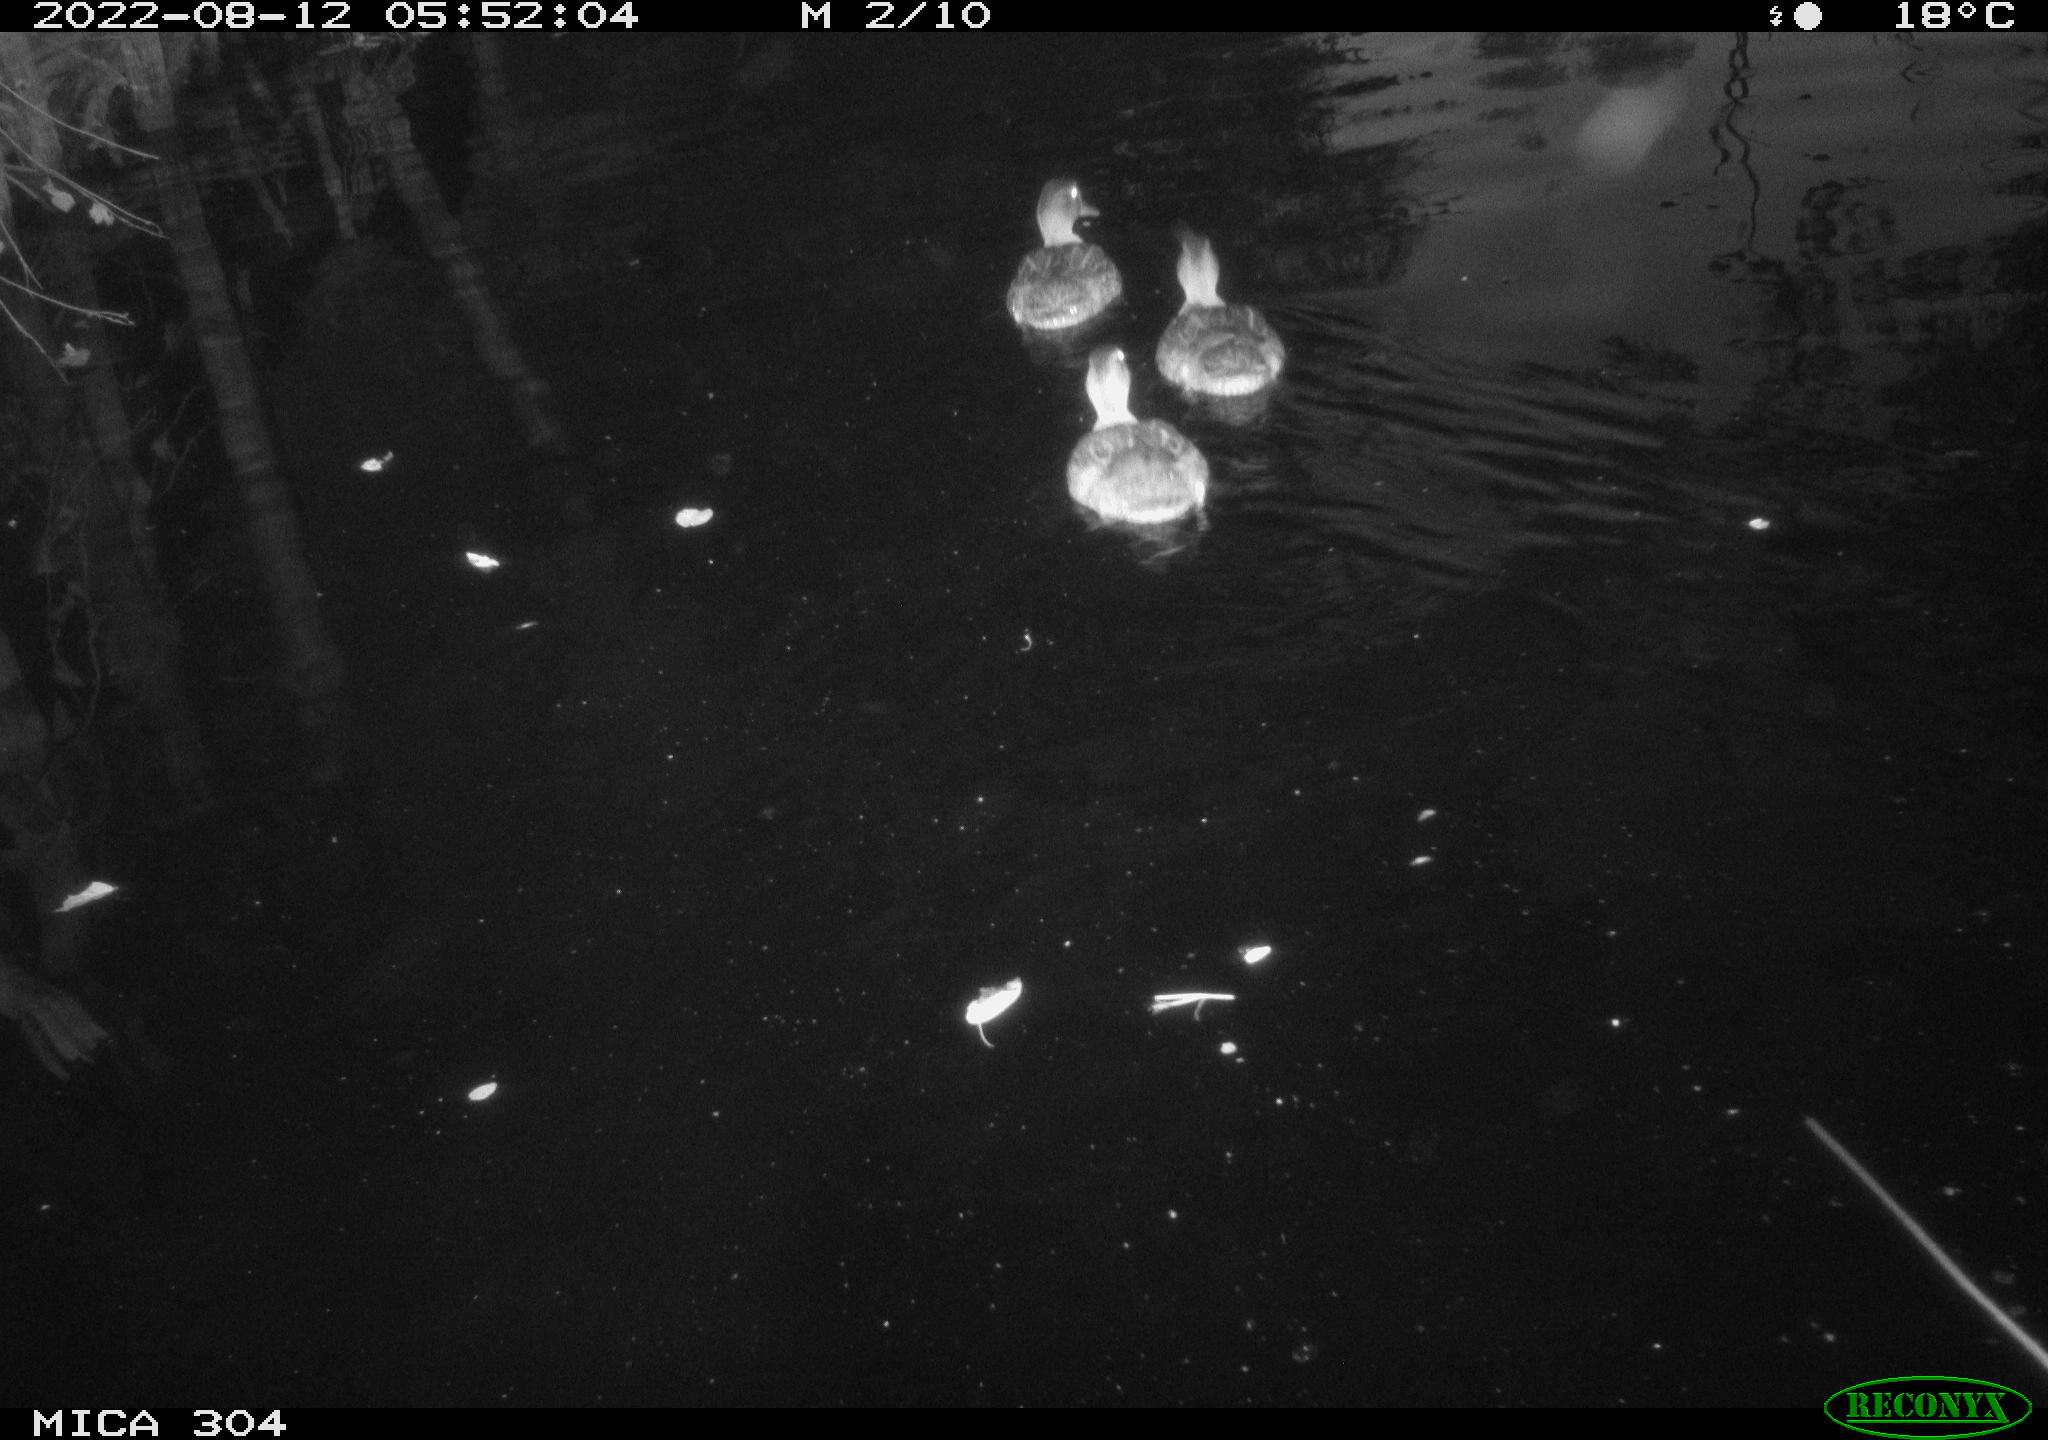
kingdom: Animalia
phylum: Chordata
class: Aves
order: Anseriformes
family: Anatidae
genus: Anas
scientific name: Anas platyrhynchos
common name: Mallard
